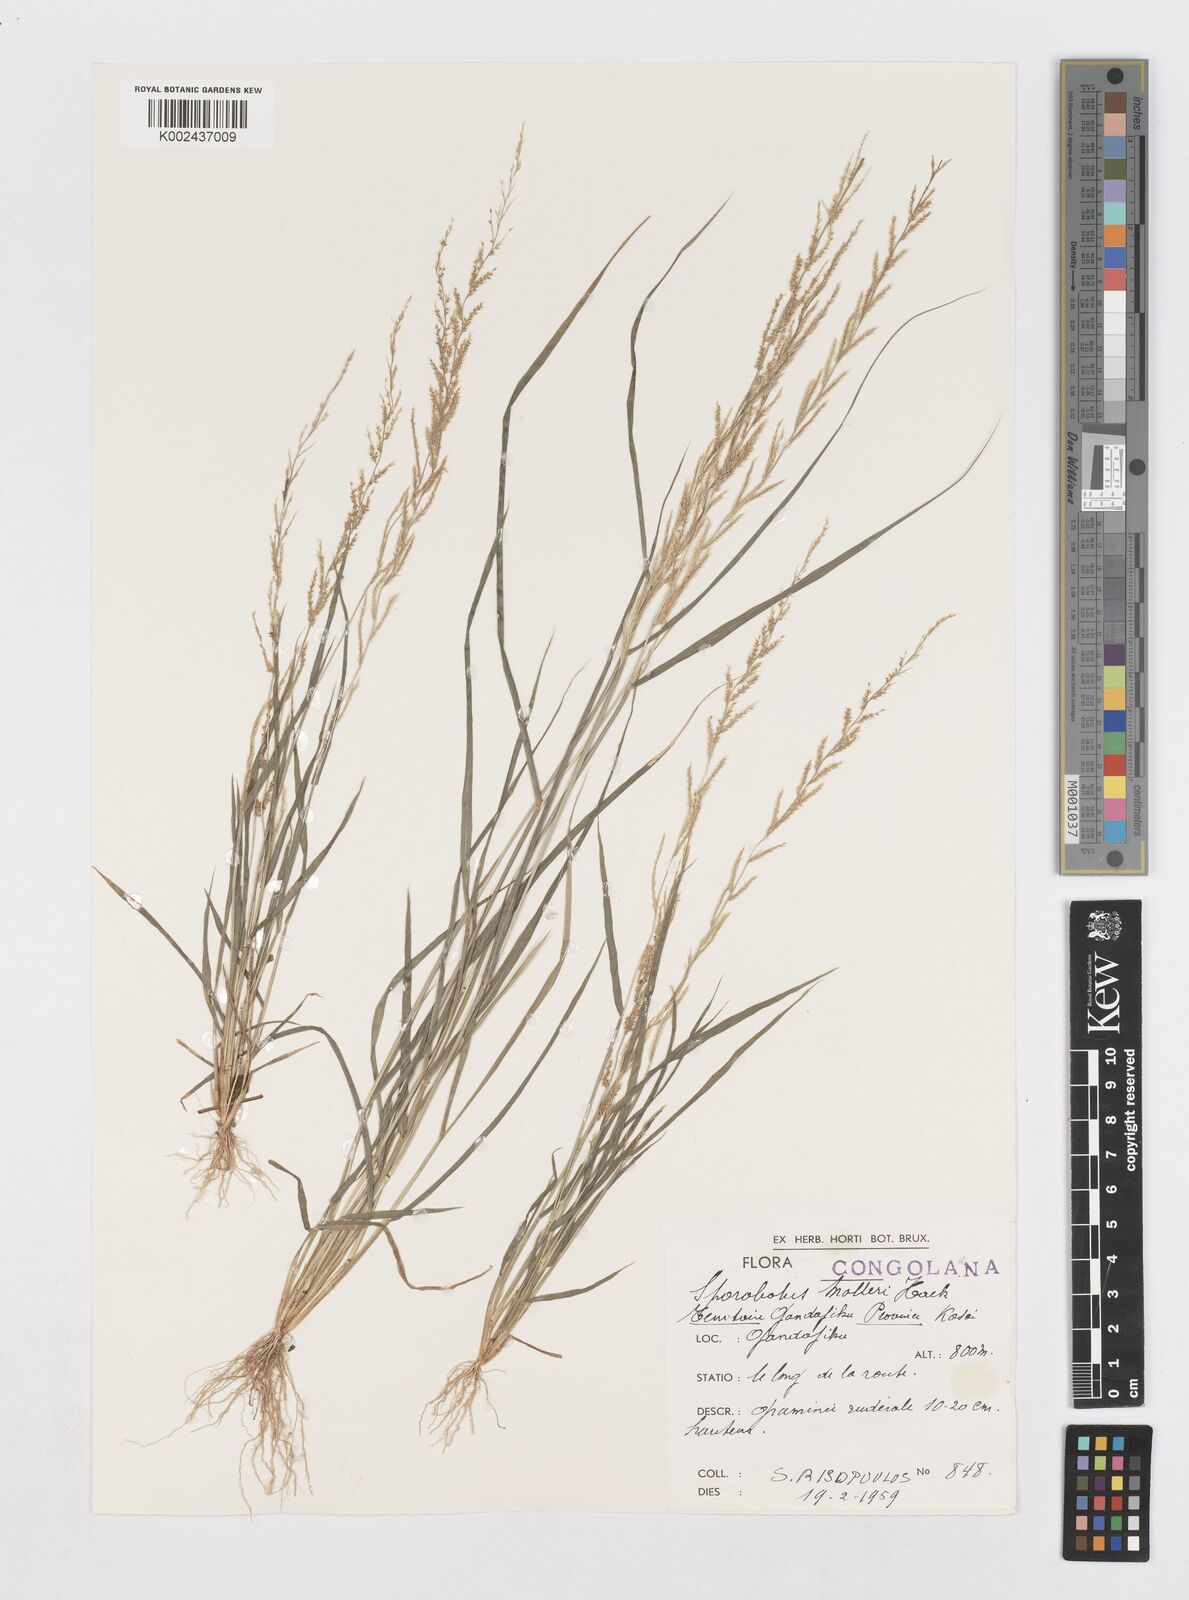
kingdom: Plantae
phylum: Tracheophyta
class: Liliopsida
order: Poales
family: Poaceae
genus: Sporobolus
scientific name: Sporobolus molleri
